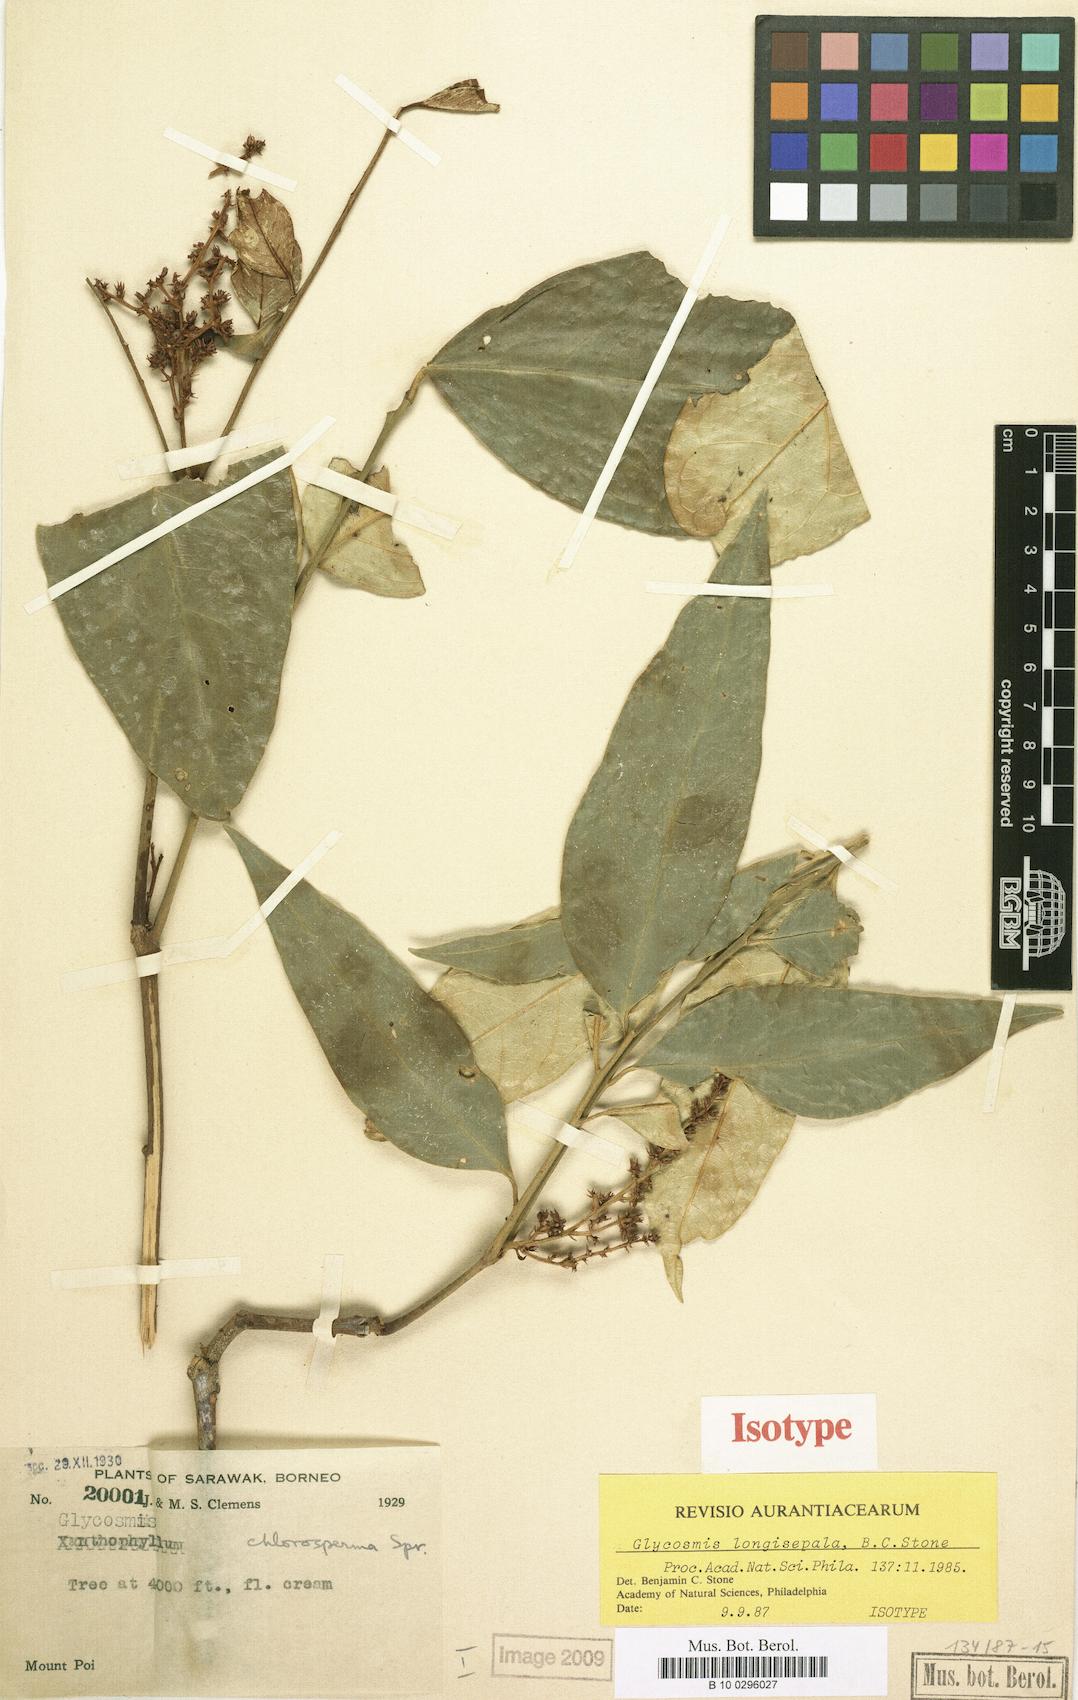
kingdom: Plantae
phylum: Tracheophyta
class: Magnoliopsida
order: Sapindales
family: Rutaceae
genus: Glycosmis
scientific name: Glycosmis longisepala
